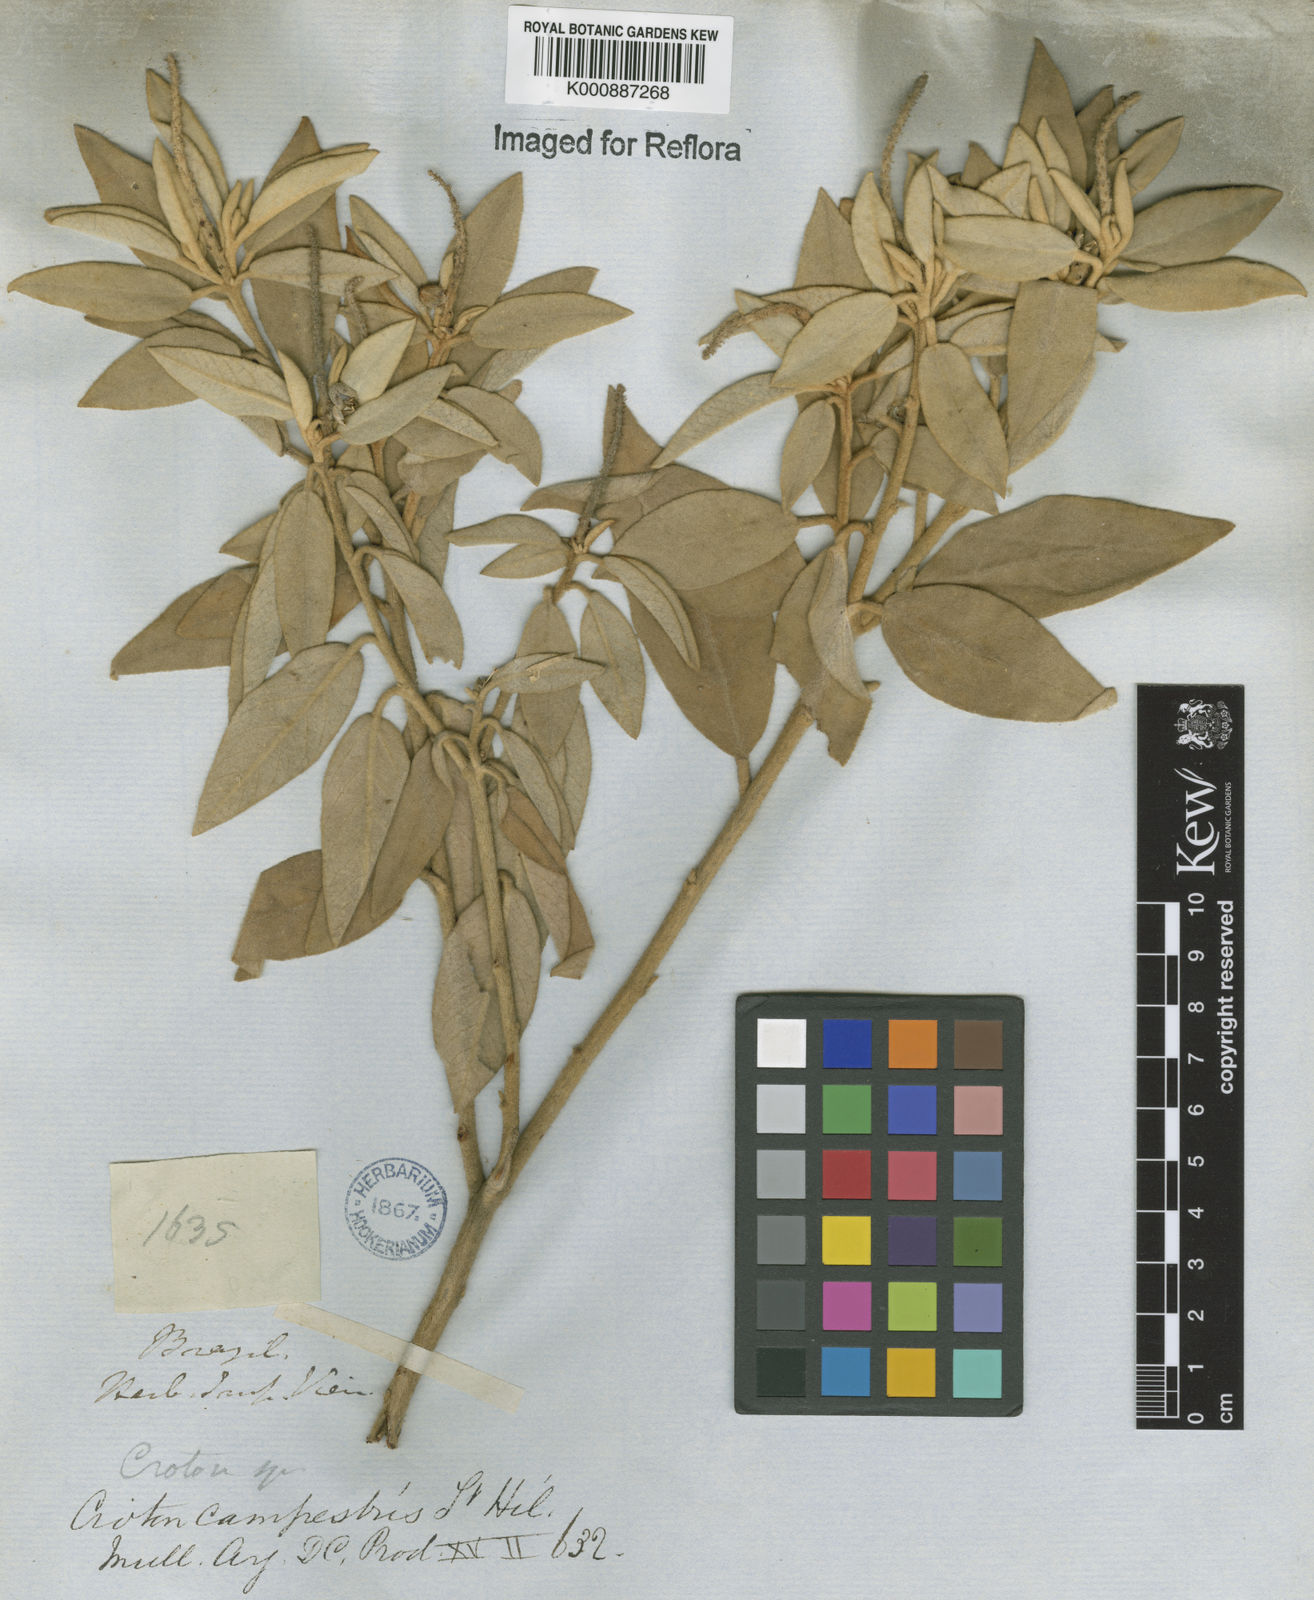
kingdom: Plantae
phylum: Tracheophyta
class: Magnoliopsida
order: Malpighiales
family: Euphorbiaceae
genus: Croton
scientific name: Croton campestris
